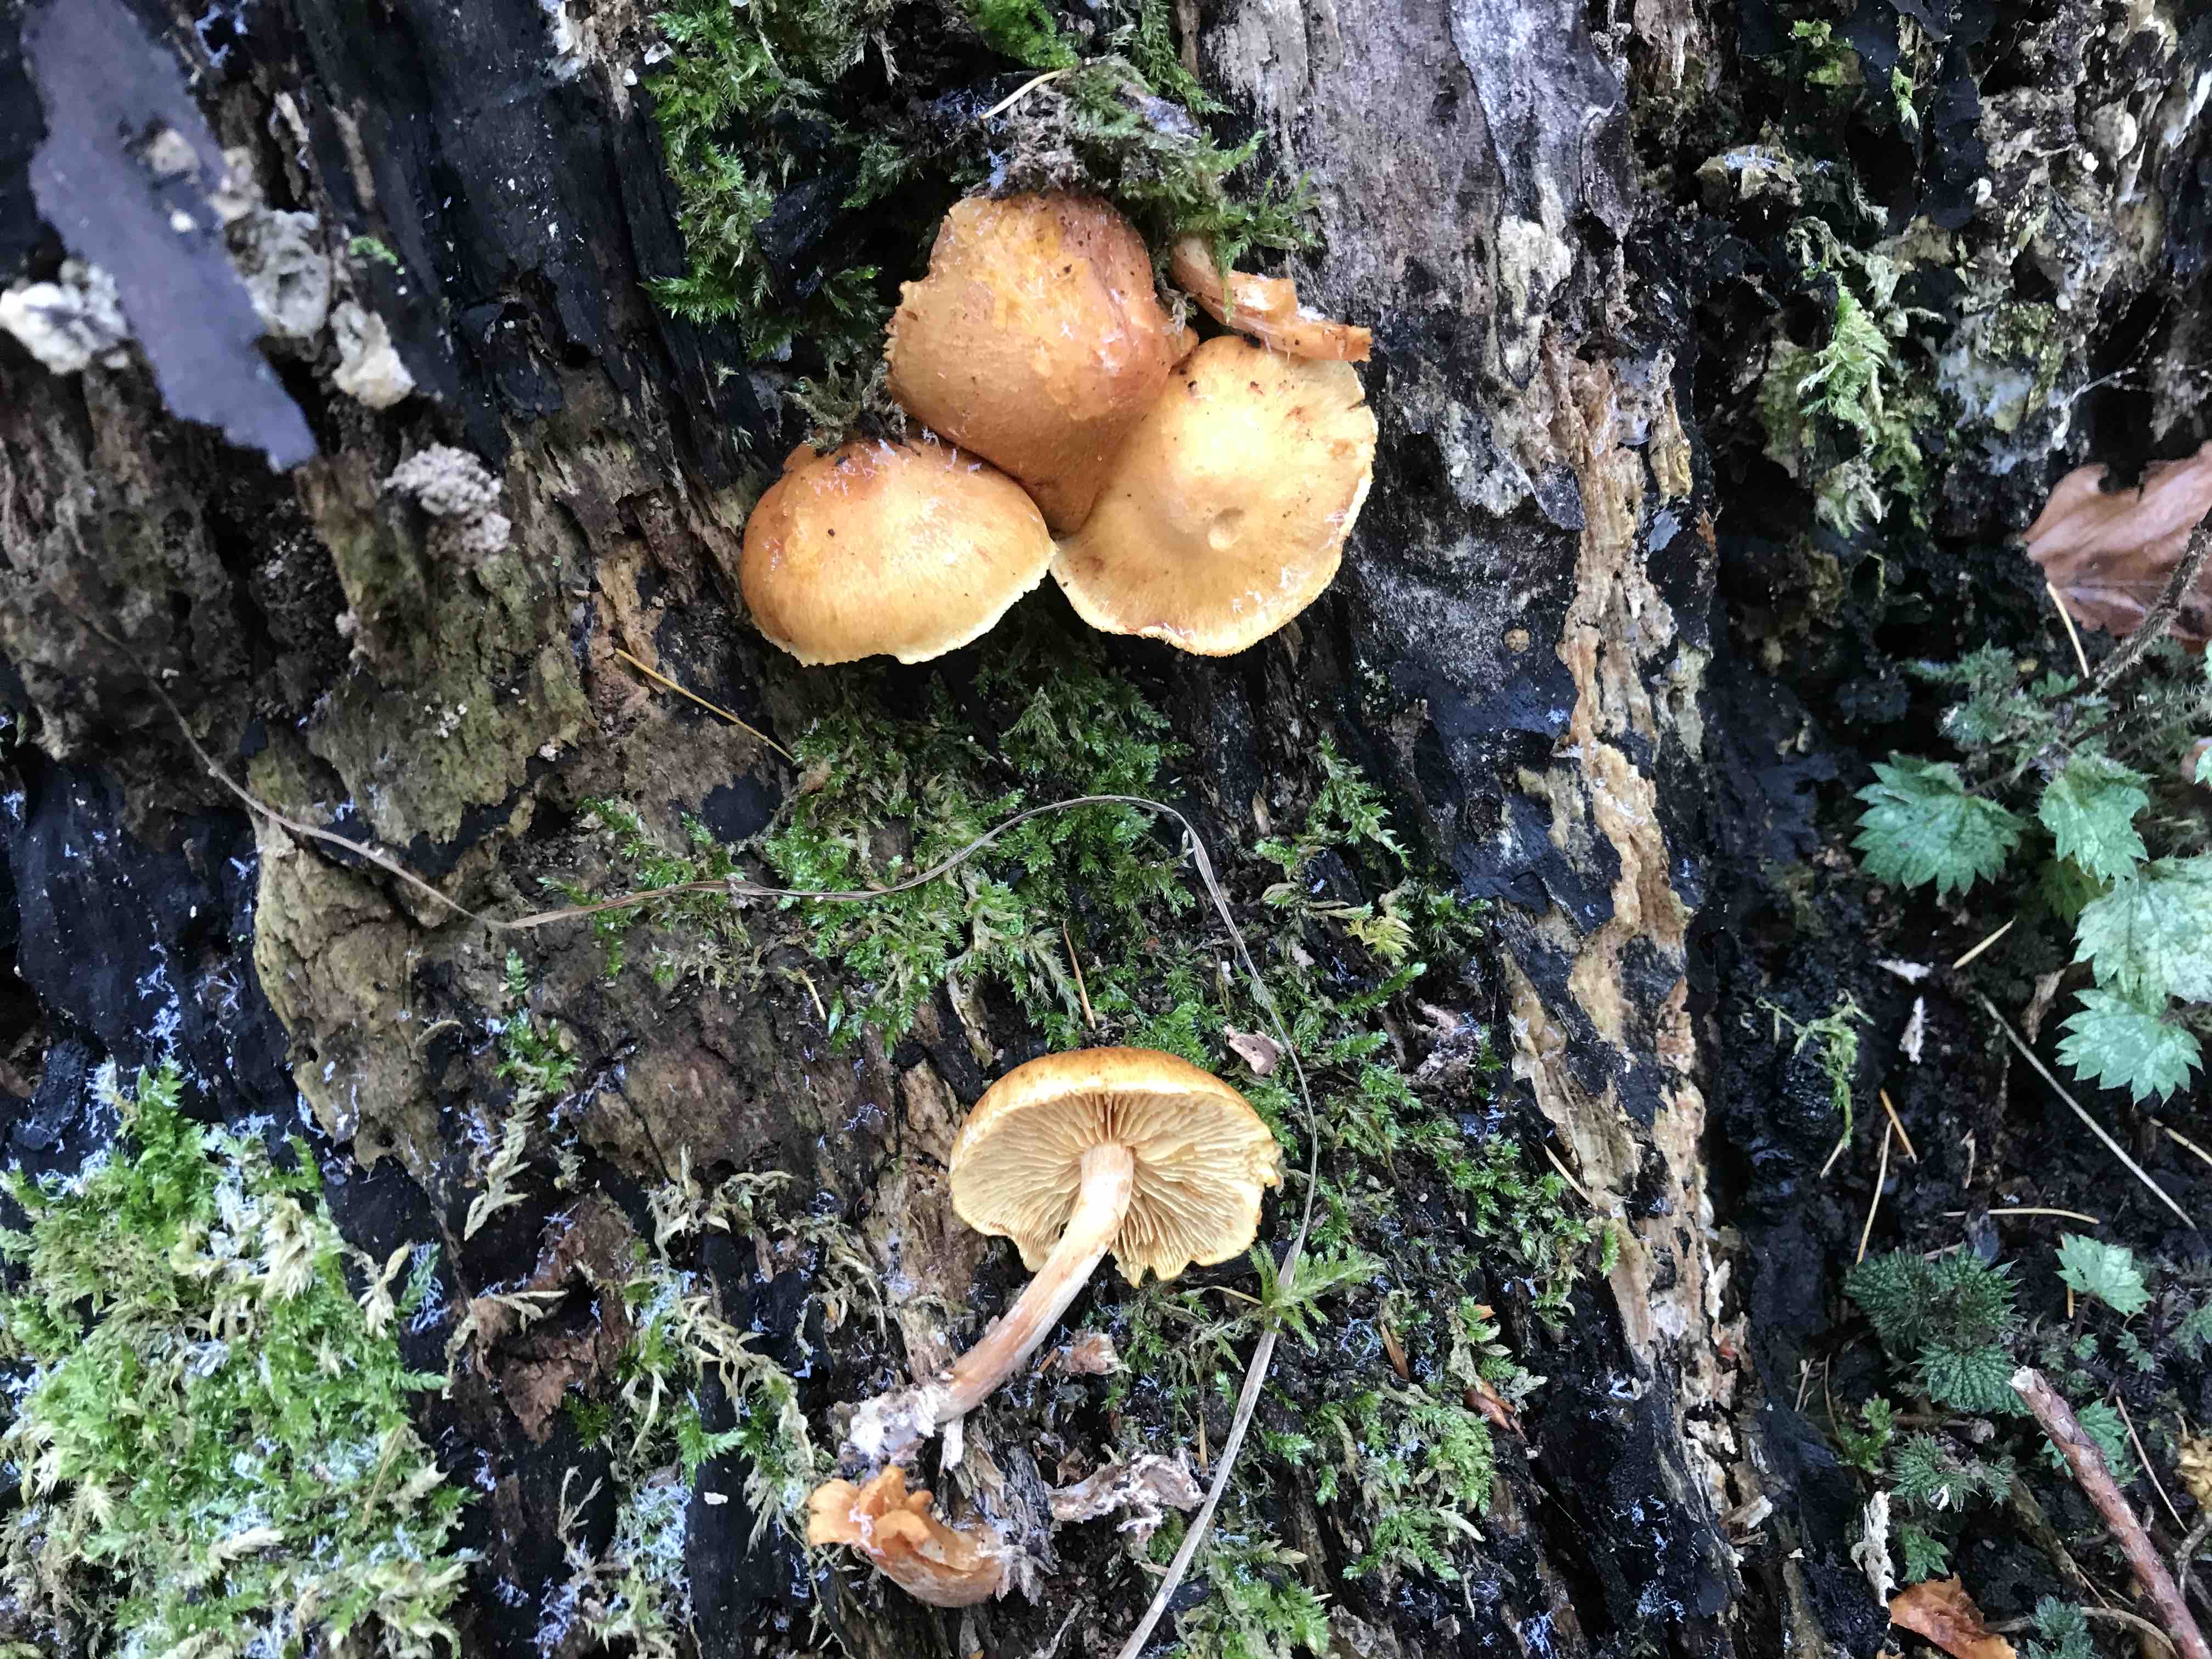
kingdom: Fungi
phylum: Basidiomycota
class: Agaricomycetes
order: Agaricales
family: Hymenogastraceae
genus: Gymnopilus
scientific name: Gymnopilus penetrans
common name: plettet flammehat
